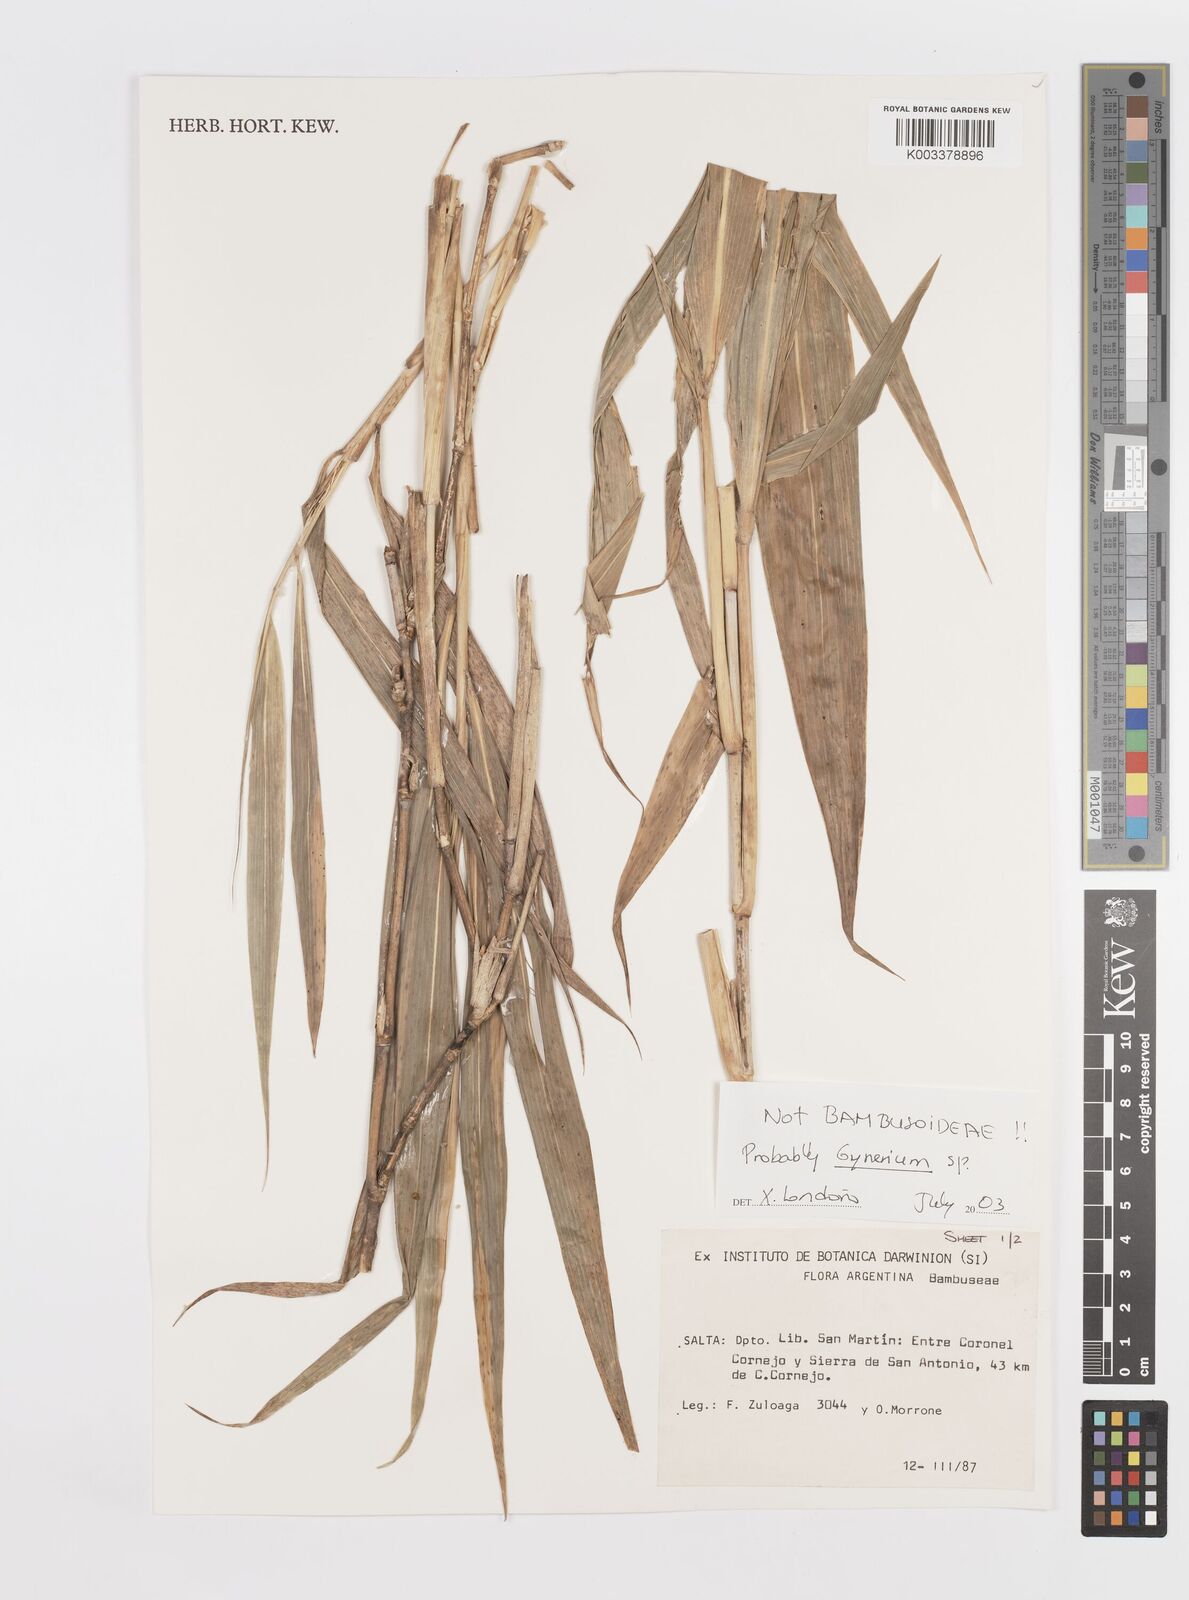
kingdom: Plantae
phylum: Tracheophyta
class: Liliopsida
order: Poales
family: Poaceae
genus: Lasiacis
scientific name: Lasiacis maculata
